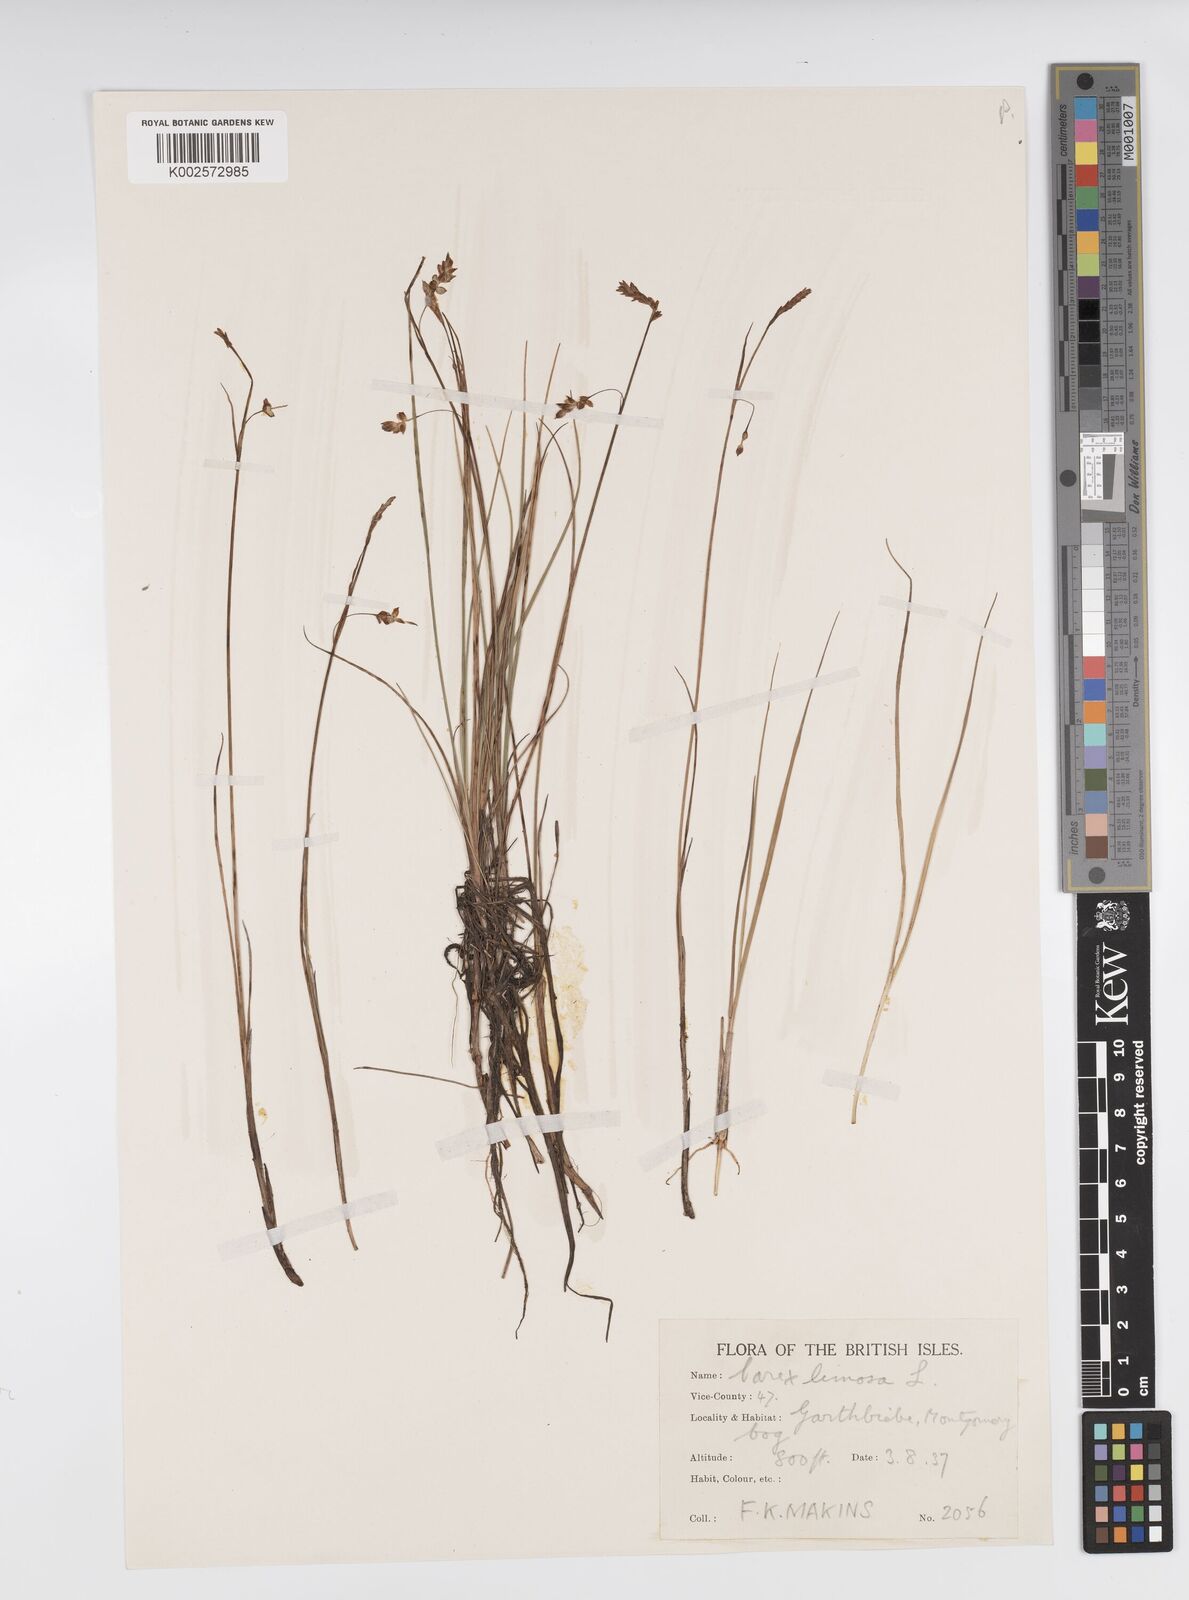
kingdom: Plantae
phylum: Tracheophyta
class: Liliopsida
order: Poales
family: Cyperaceae
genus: Carex
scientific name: Carex limosa
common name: Bog sedge
